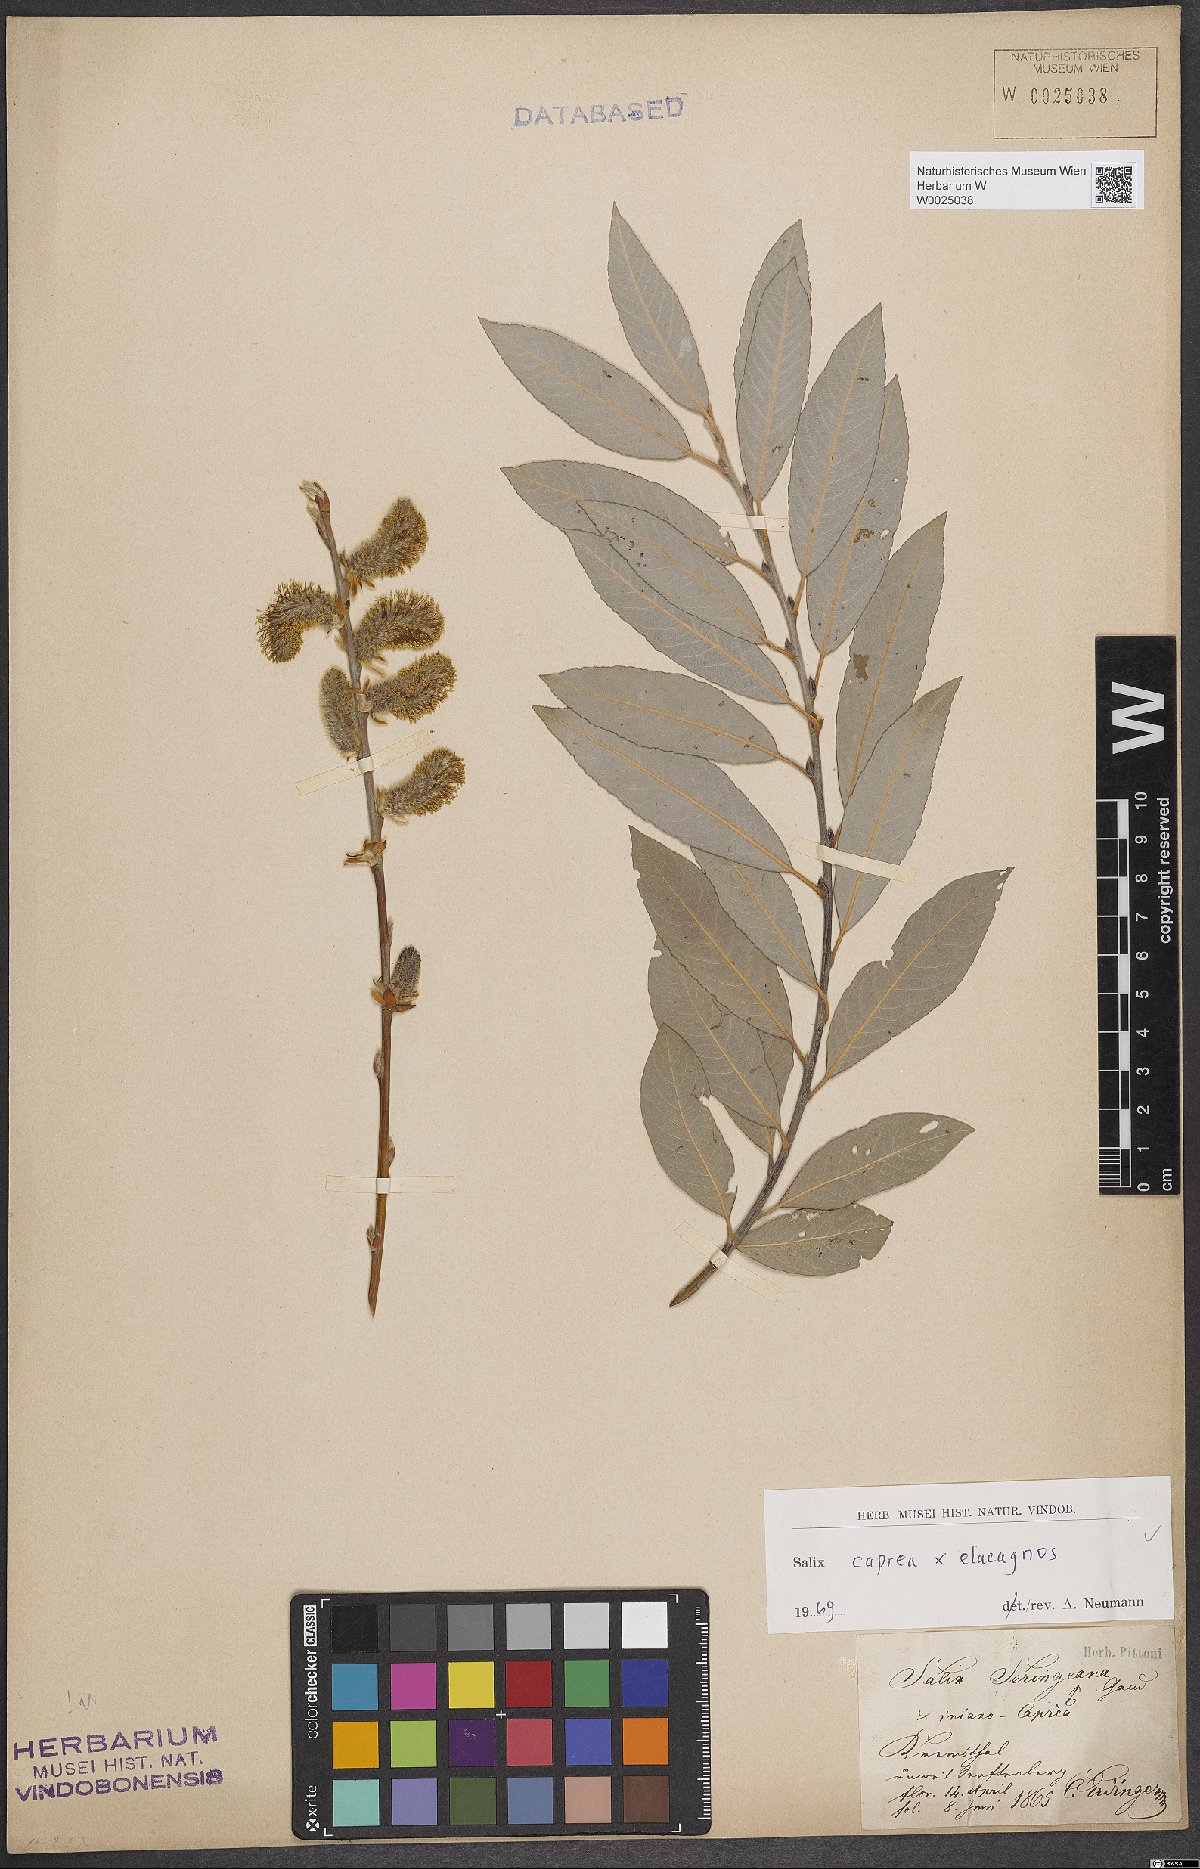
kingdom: Plantae
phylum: Tracheophyta
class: Magnoliopsida
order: Malpighiales
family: Salicaceae
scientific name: Salicaceae
